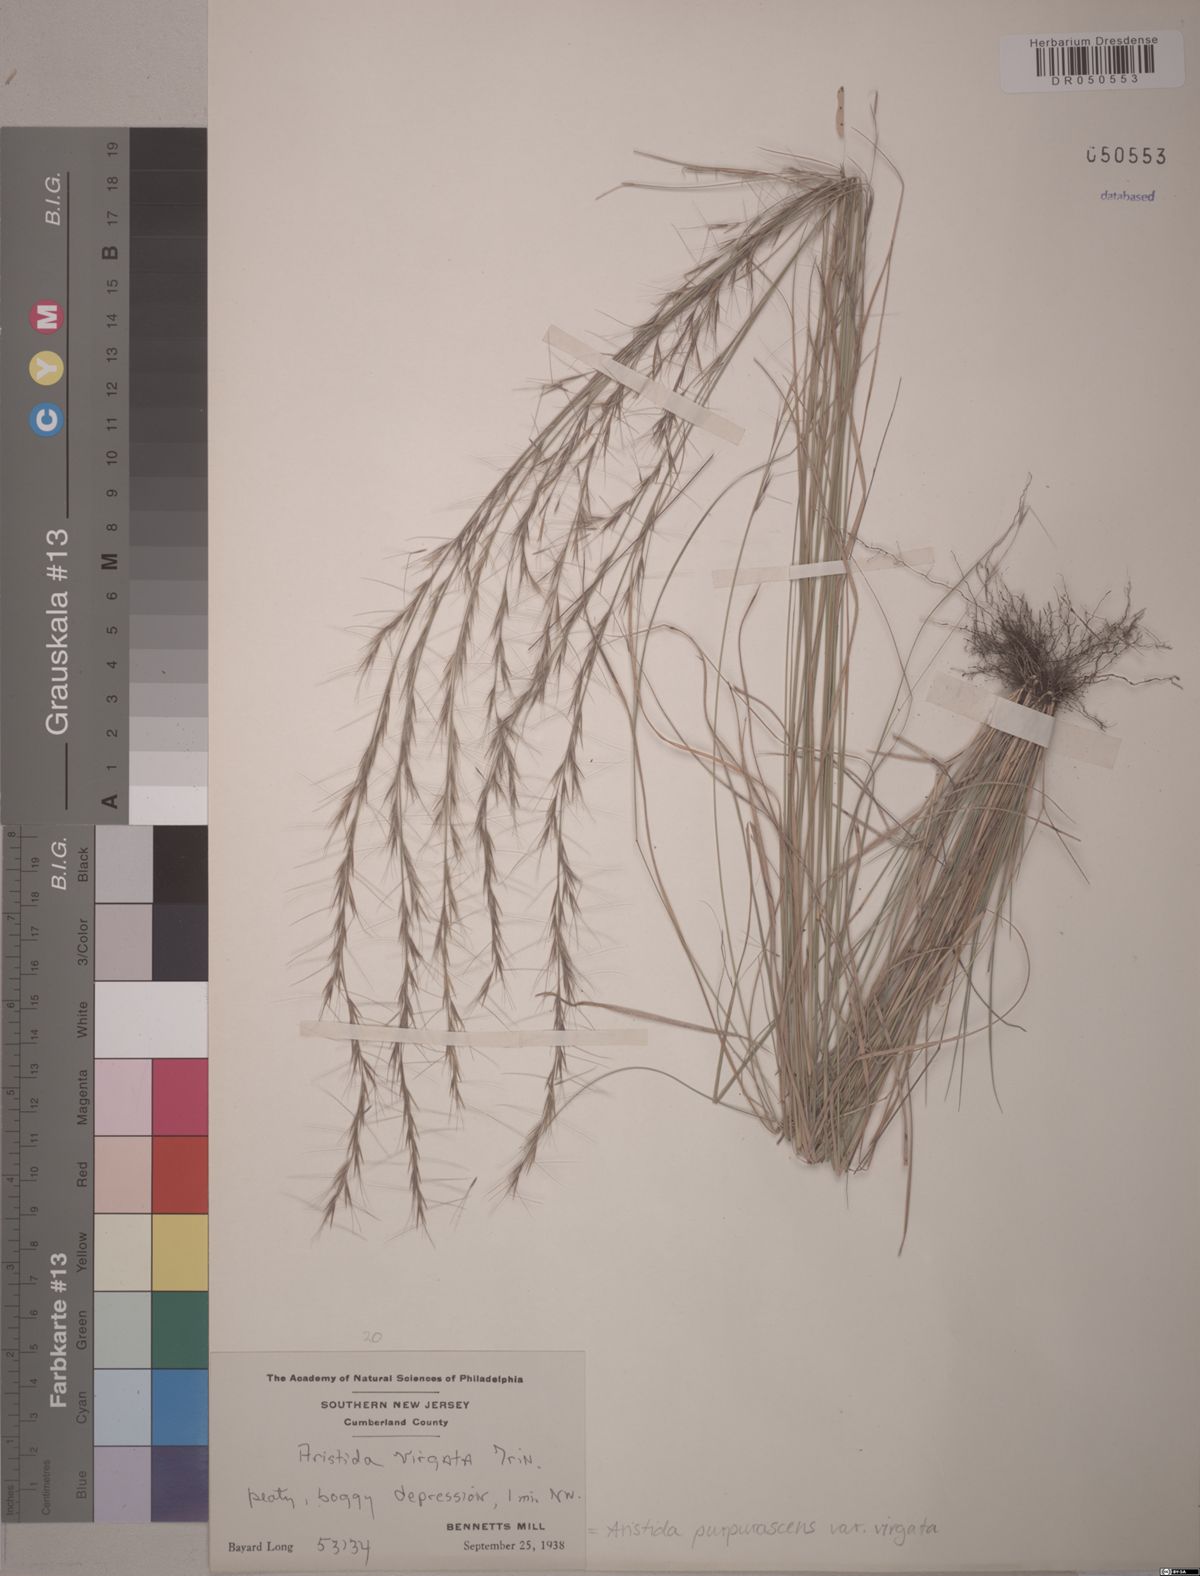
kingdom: Plantae
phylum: Tracheophyta
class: Liliopsida
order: Poales
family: Poaceae
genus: Aristida
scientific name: Aristida virgata
